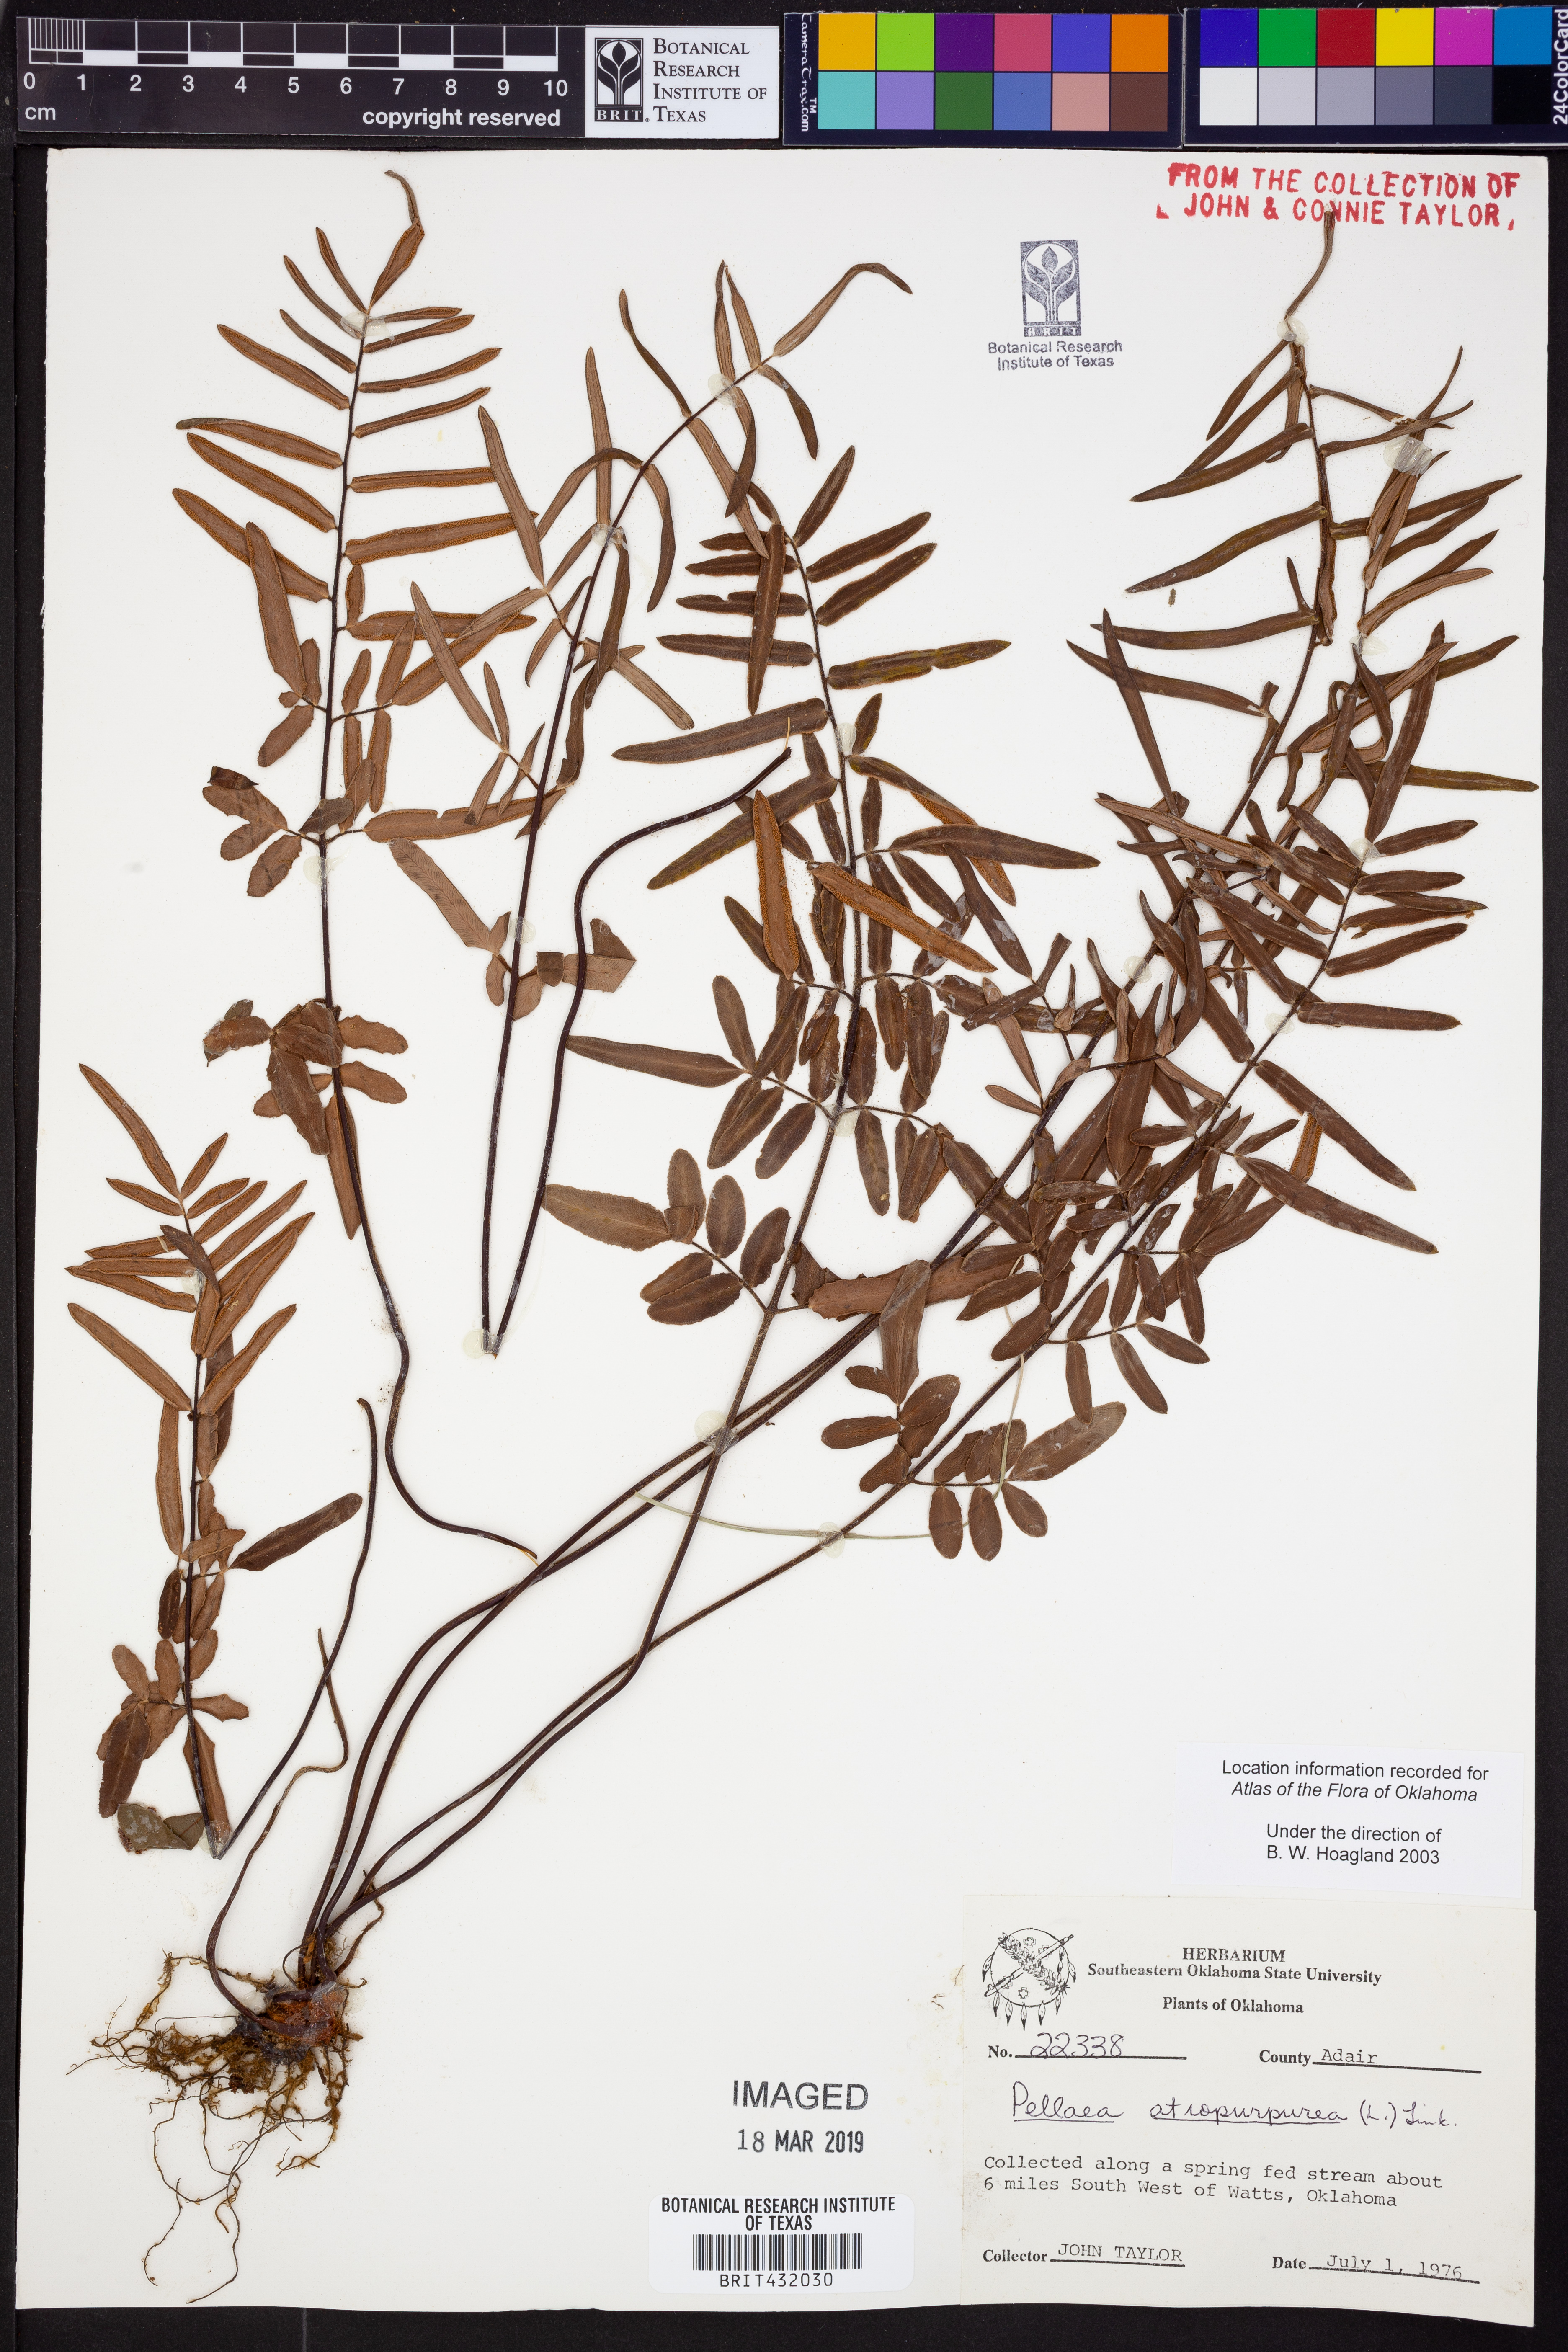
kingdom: Plantae
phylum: Tracheophyta
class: Polypodiopsida
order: Polypodiales
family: Pteridaceae
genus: Pellaea
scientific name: Pellaea atropurpurea
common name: Hairy cliffbrake
